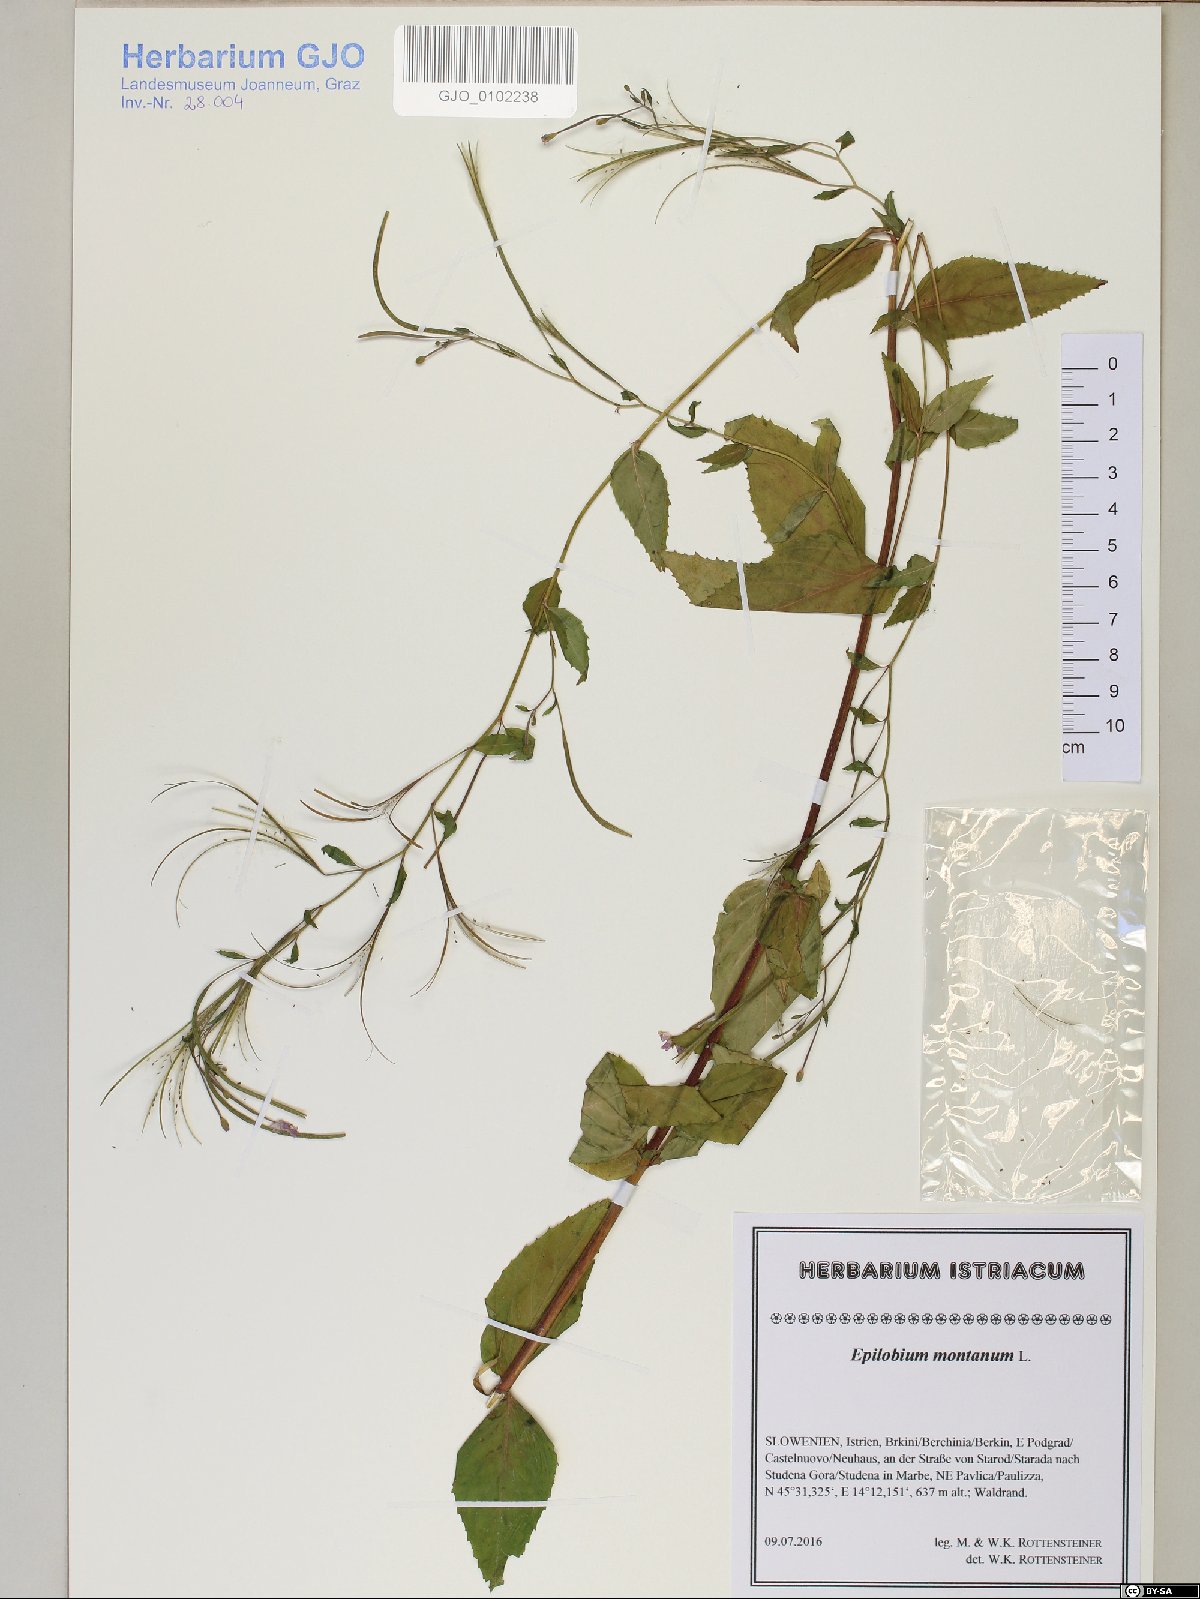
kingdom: Plantae
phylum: Tracheophyta
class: Magnoliopsida
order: Myrtales
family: Onagraceae
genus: Epilobium
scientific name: Epilobium montanum
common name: Broad-leaved willowherb
